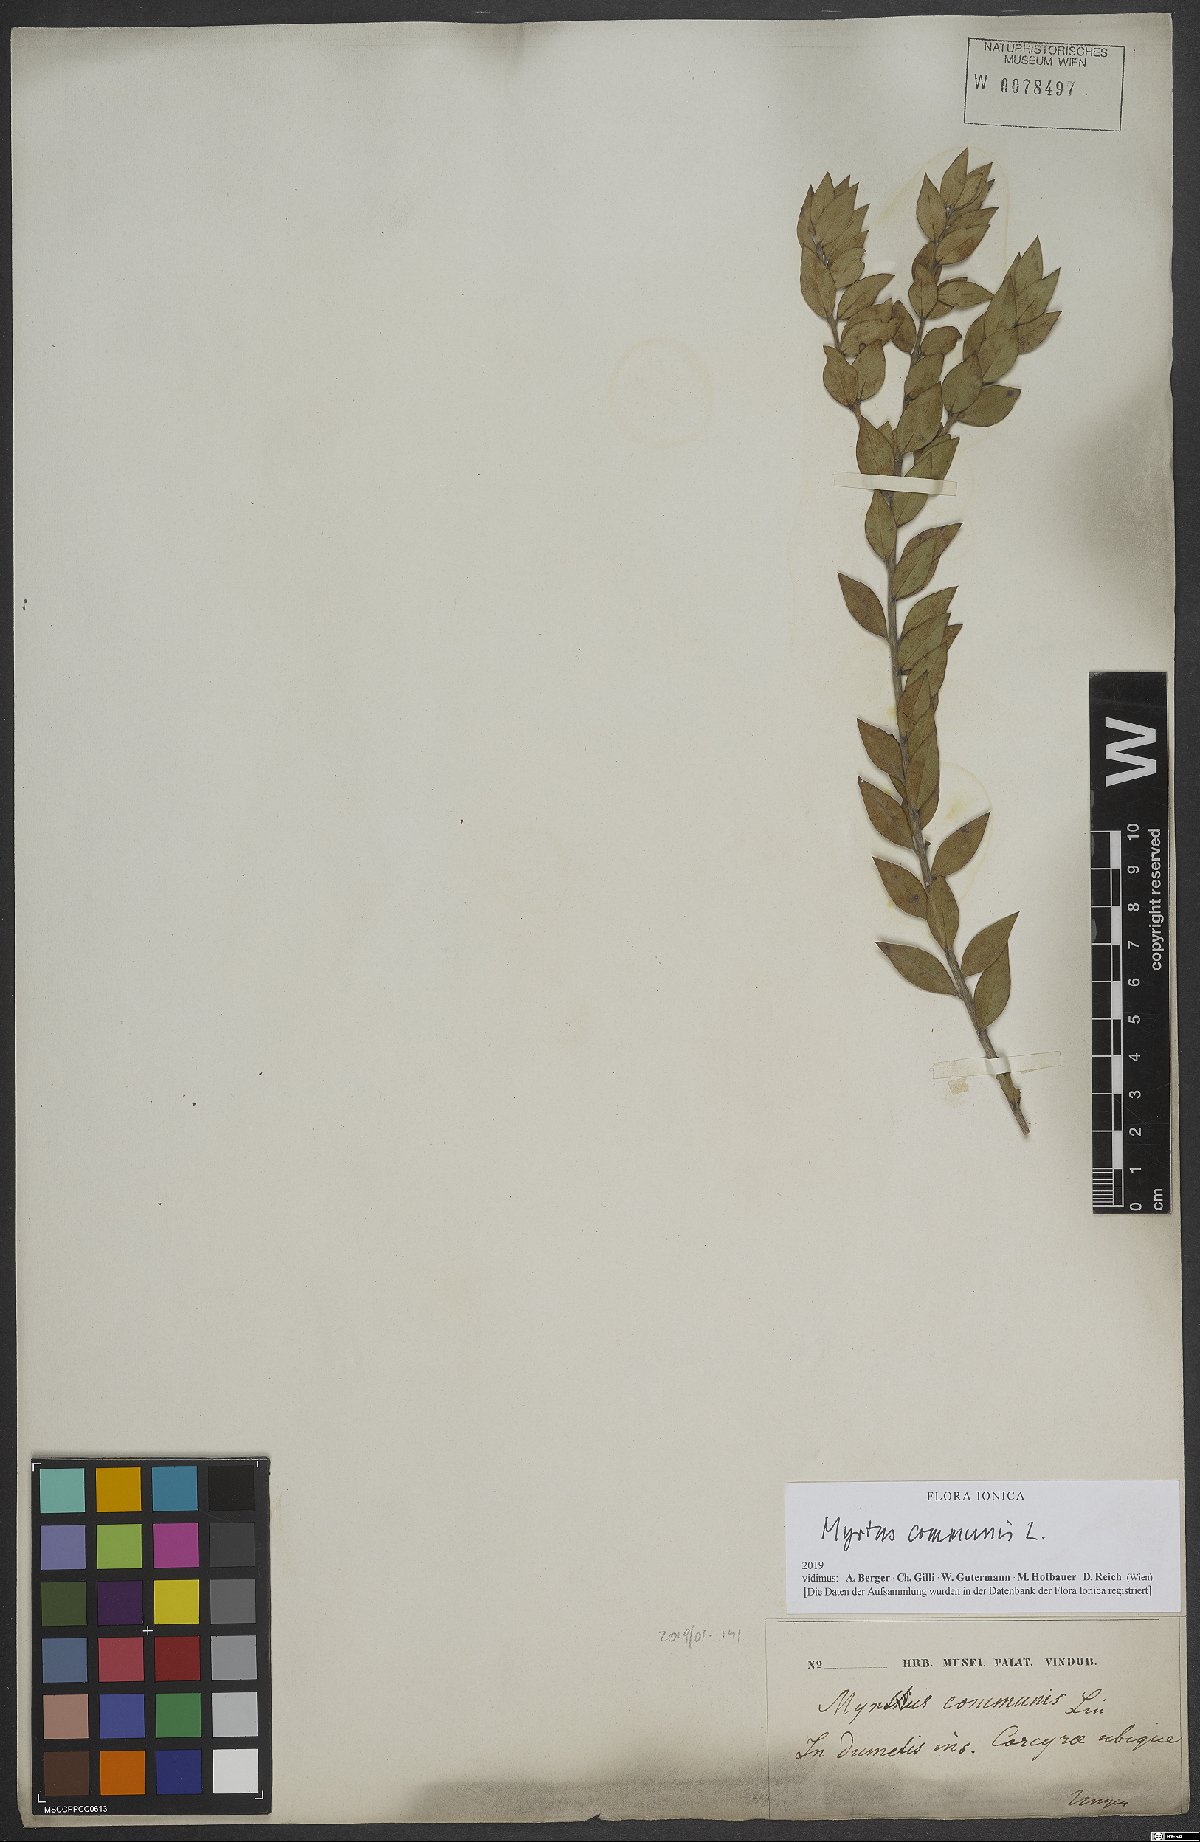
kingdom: Plantae
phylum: Tracheophyta
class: Magnoliopsida
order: Myrtales
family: Myrtaceae
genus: Myrtus
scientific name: Myrtus communis
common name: Myrtle
